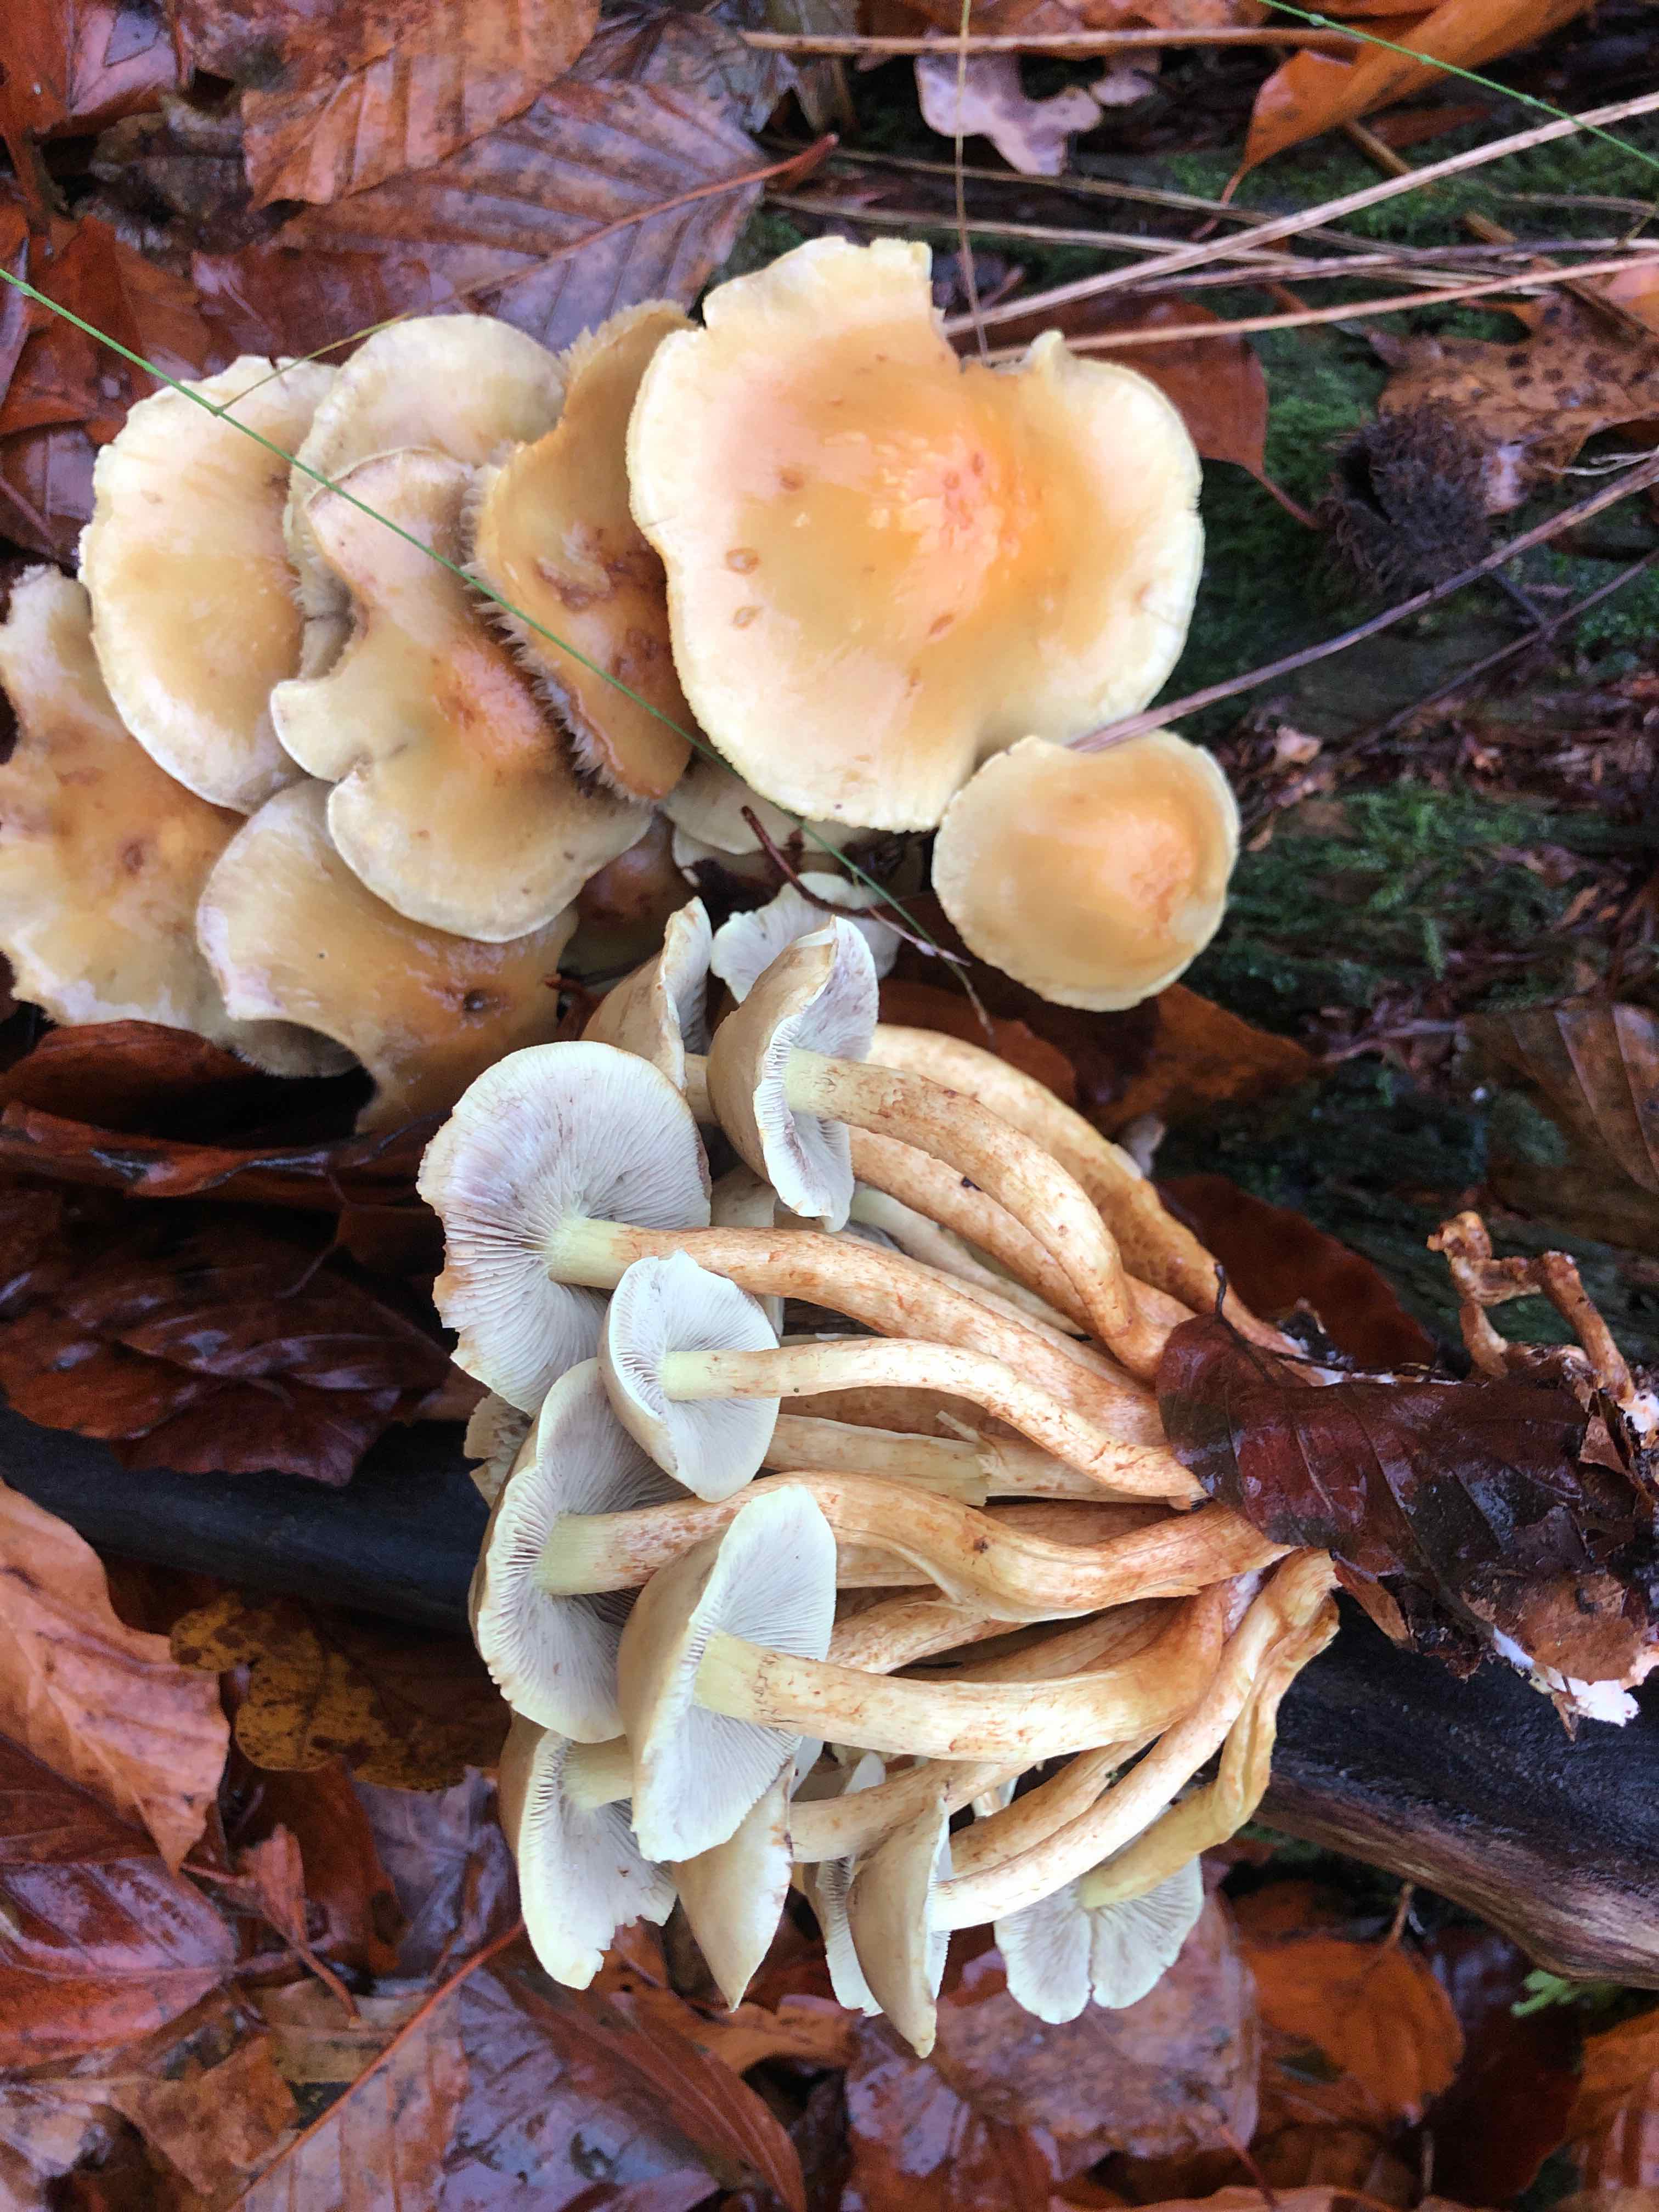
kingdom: Fungi
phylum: Basidiomycota
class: Agaricomycetes
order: Agaricales
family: Strophariaceae
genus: Hypholoma
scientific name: Hypholoma fasciculare
